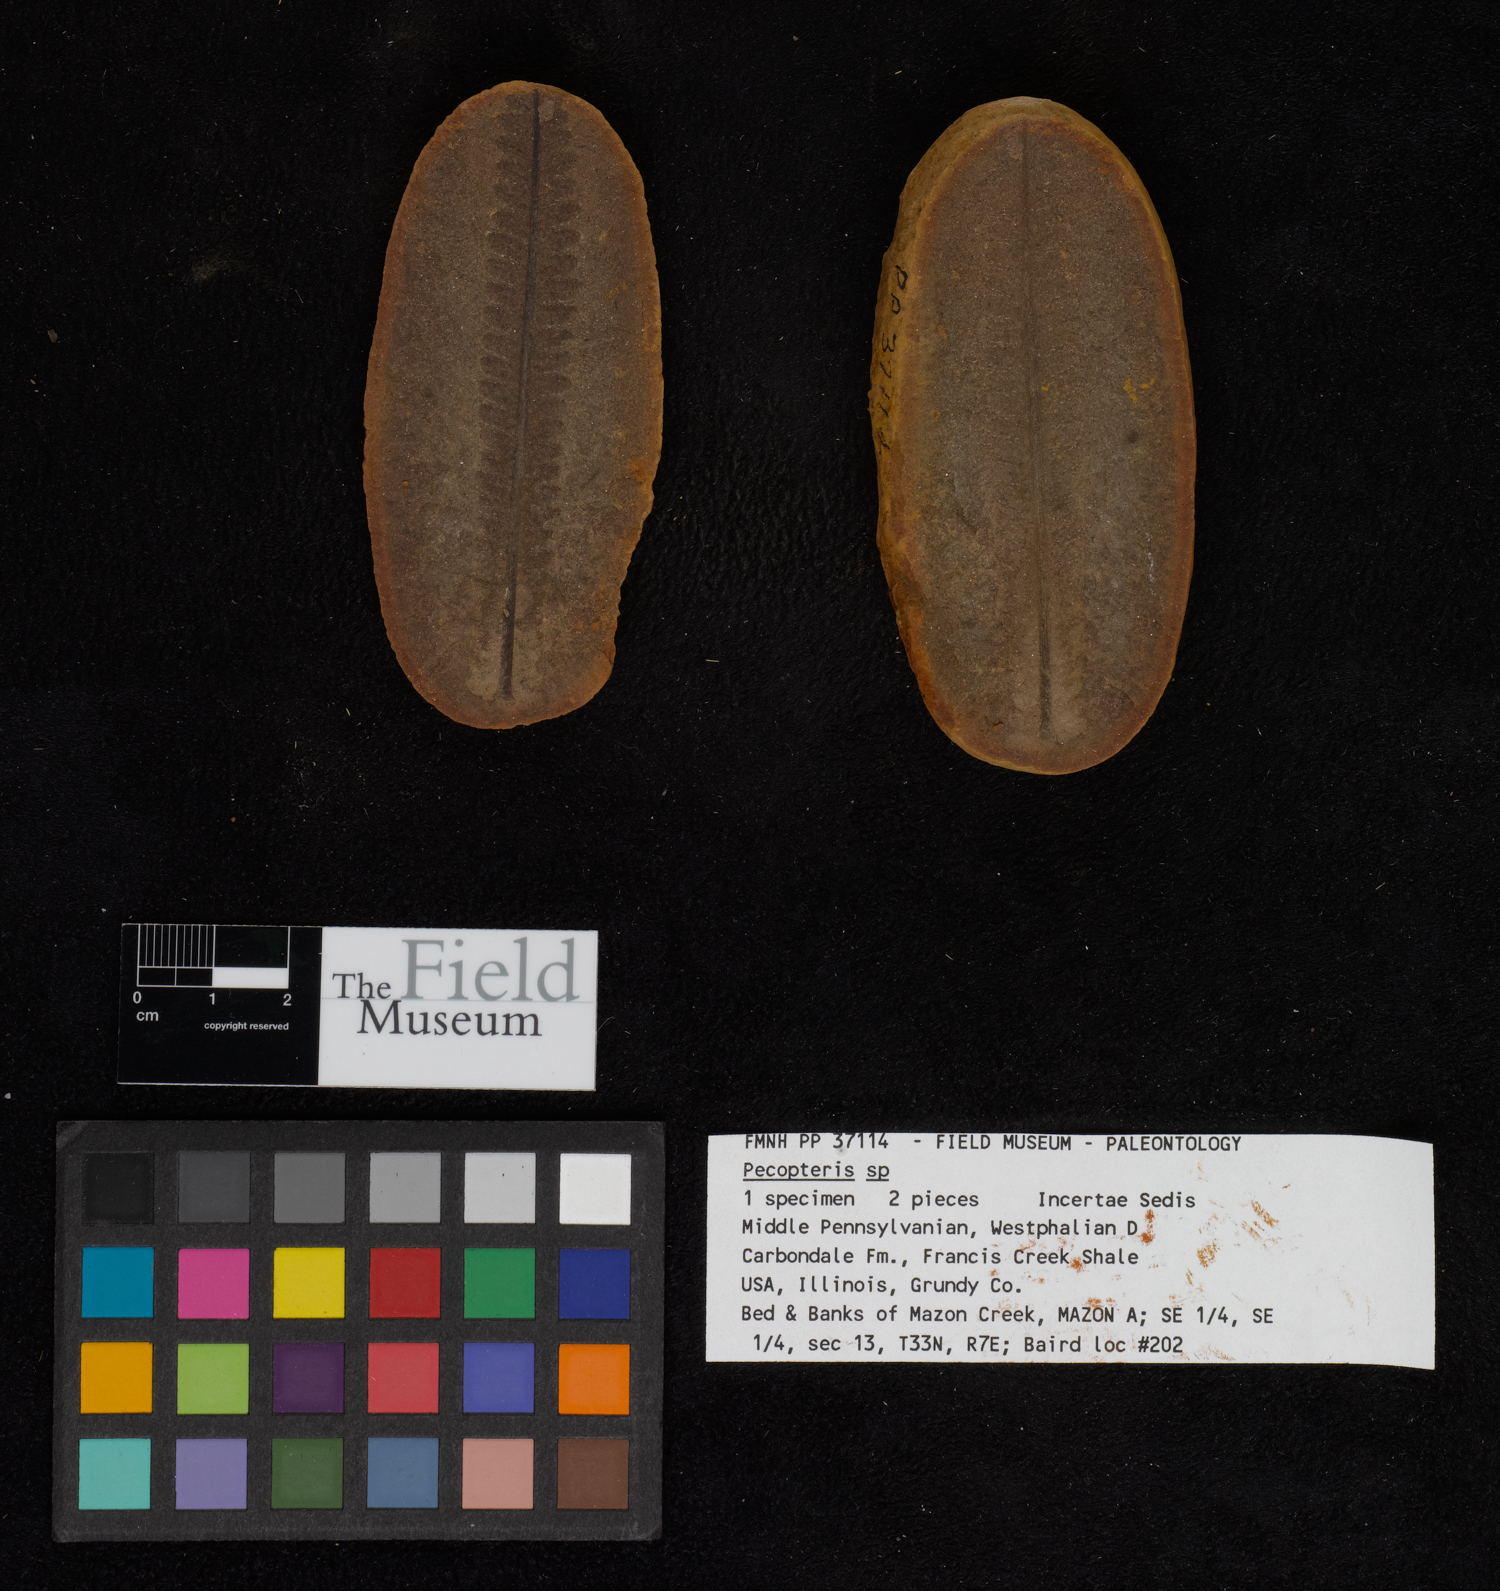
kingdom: Plantae
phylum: Tracheophyta
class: Polypodiopsida
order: Marattiales
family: Asterothecaceae
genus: Pecopteris
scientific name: Pecopteris
